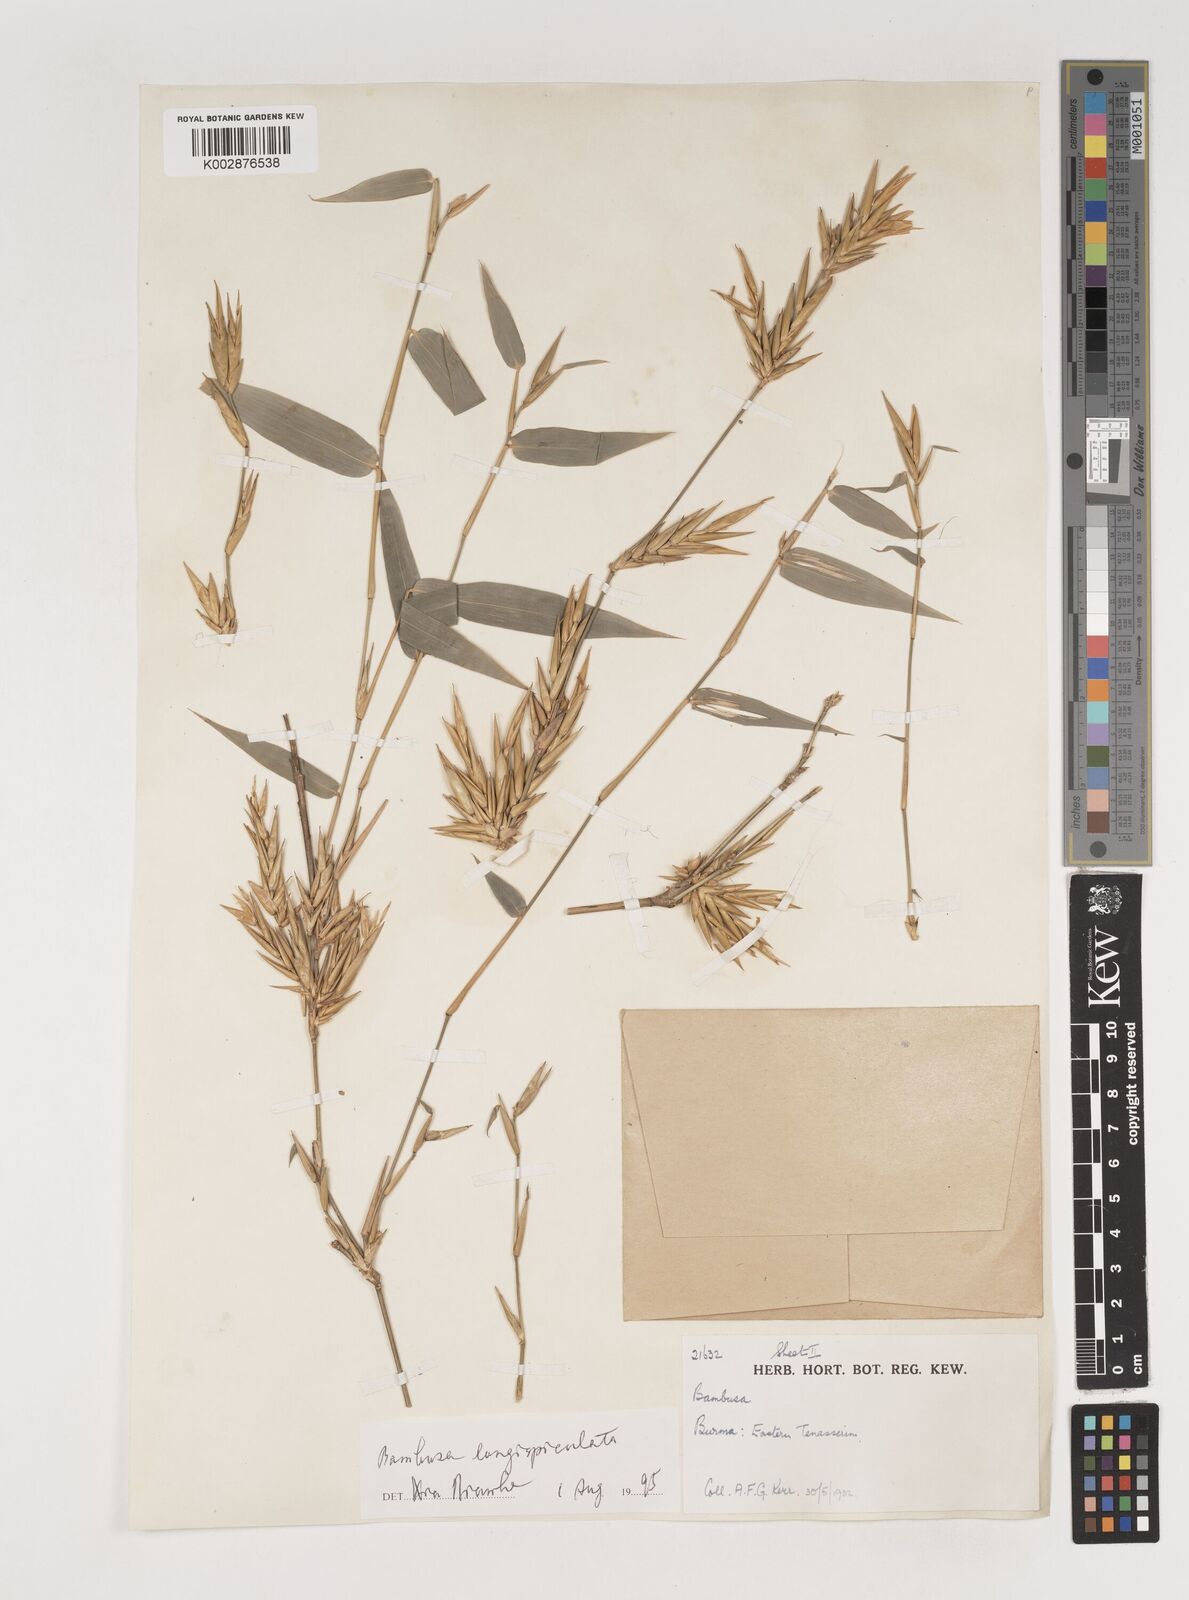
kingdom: Plantae
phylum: Tracheophyta
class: Liliopsida
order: Poales
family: Poaceae
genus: Bambusa
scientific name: Bambusa longispiculata
